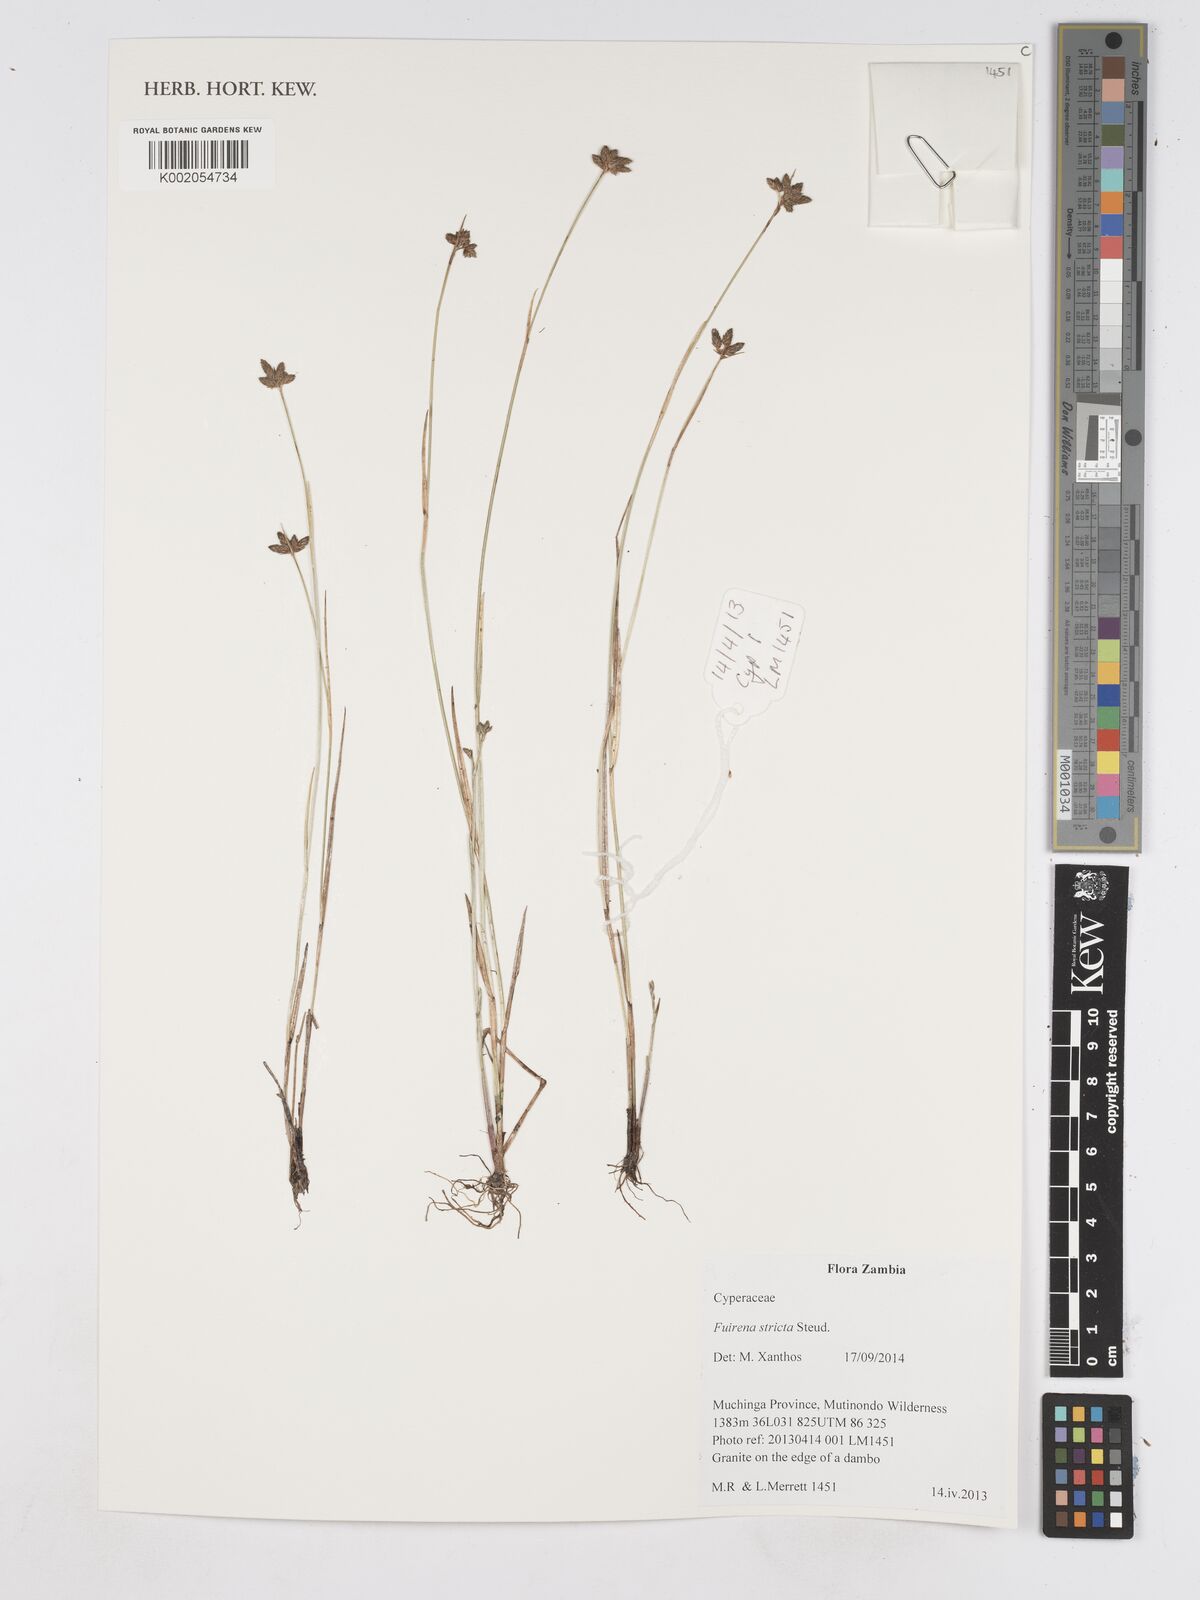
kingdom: Plantae
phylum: Tracheophyta
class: Liliopsida
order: Poales
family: Cyperaceae
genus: Fuirena
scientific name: Fuirena stricta
